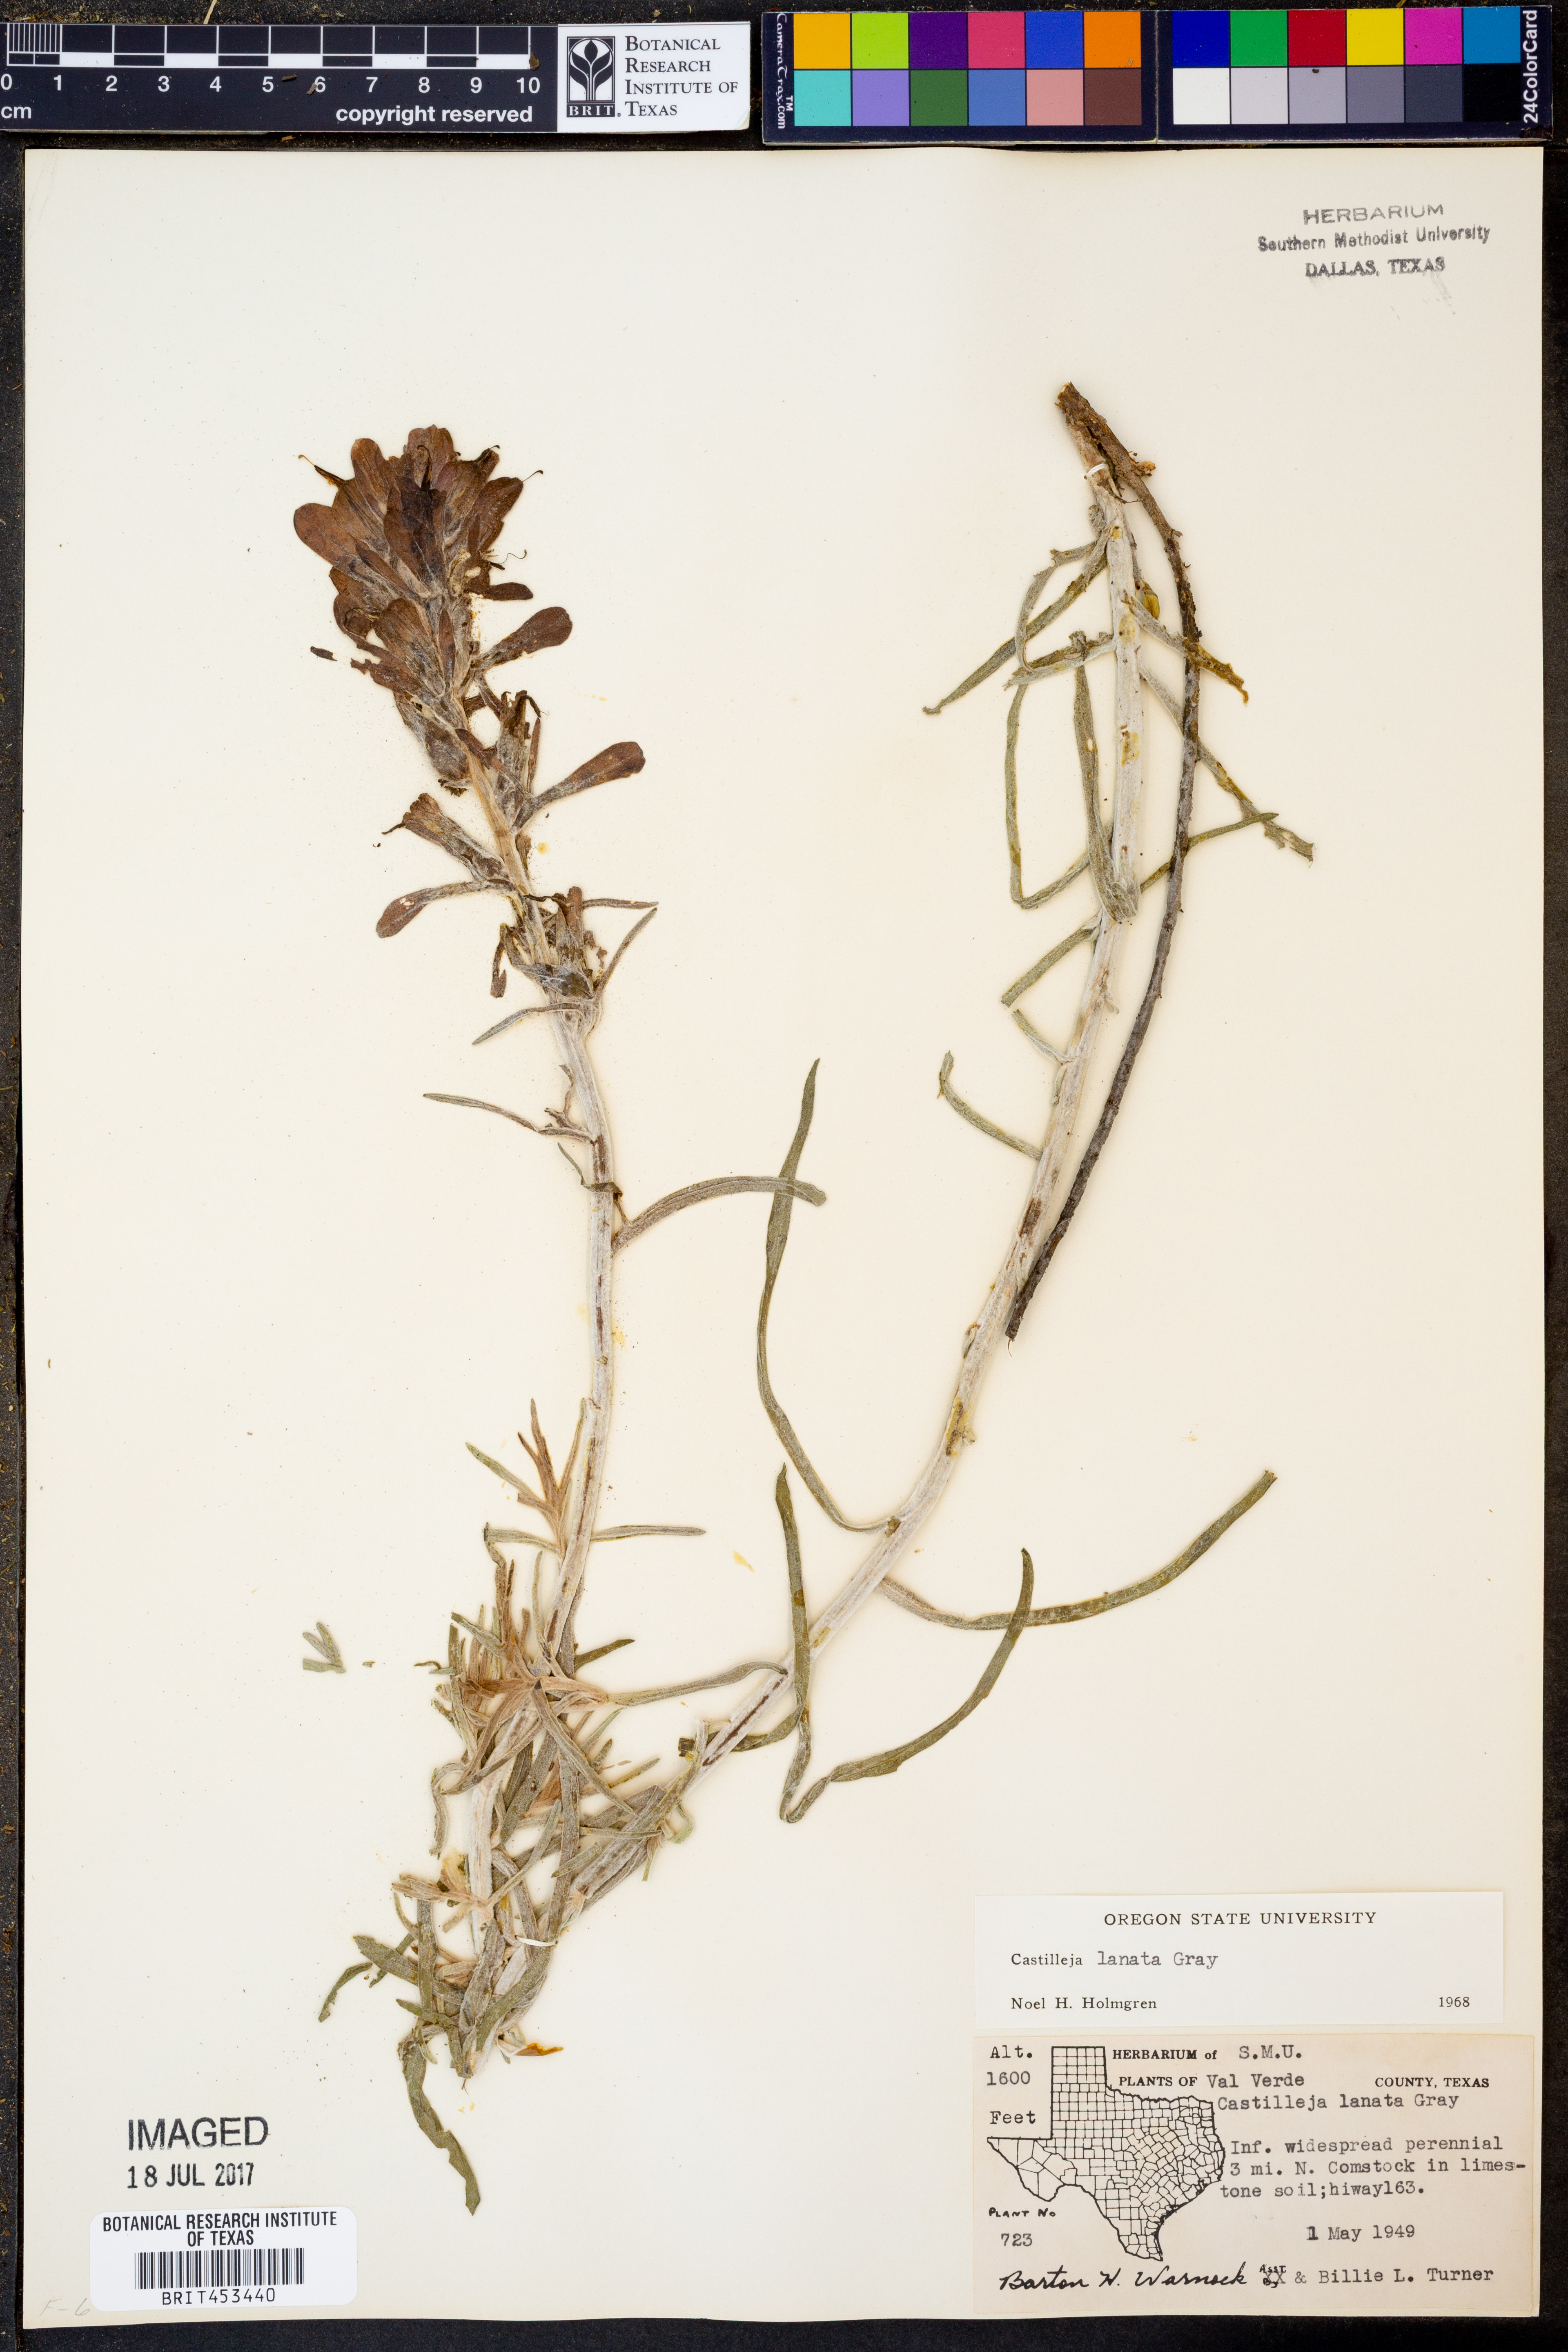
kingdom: Plantae
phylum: Tracheophyta
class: Magnoliopsida
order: Lamiales
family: Orobanchaceae
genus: Castilleja
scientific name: Castilleja lanata
